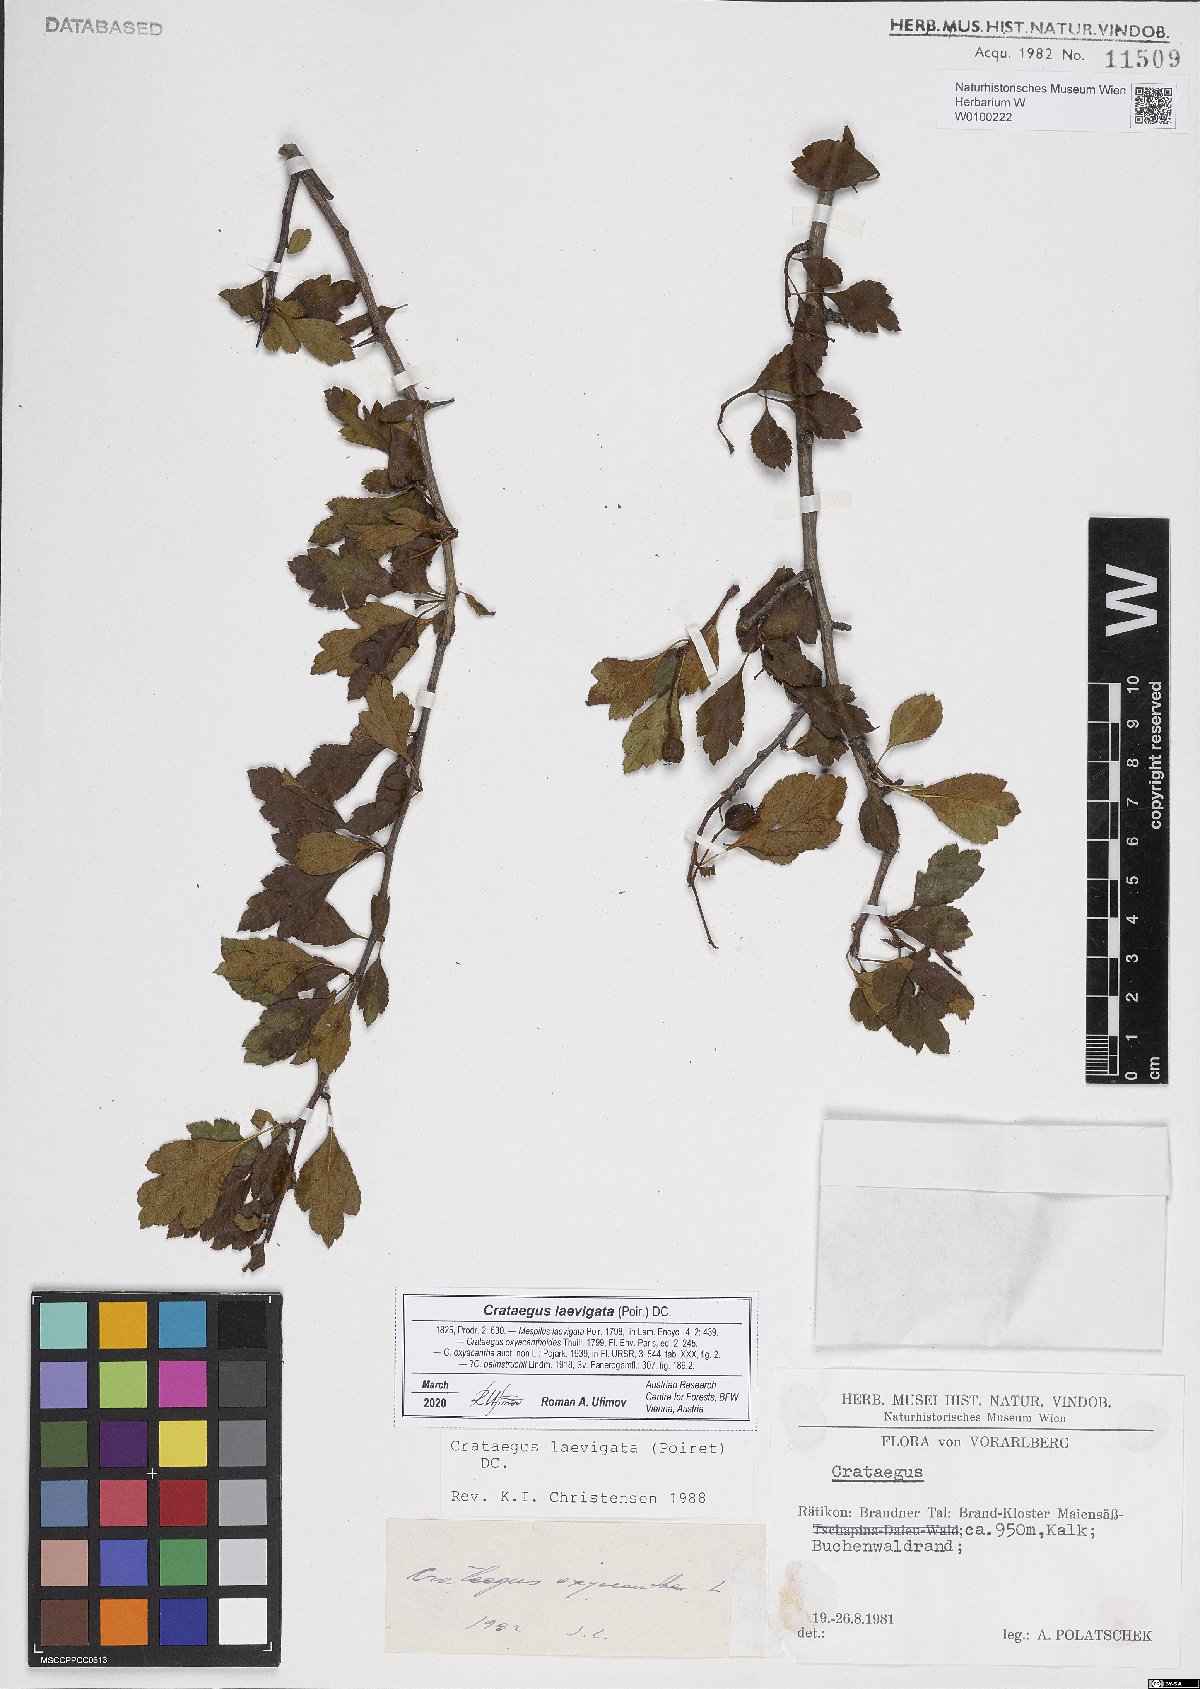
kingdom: Plantae
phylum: Tracheophyta
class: Magnoliopsida
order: Rosales
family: Rosaceae
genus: Crataegus
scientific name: Crataegus laevigata
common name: Midland hawthorn
